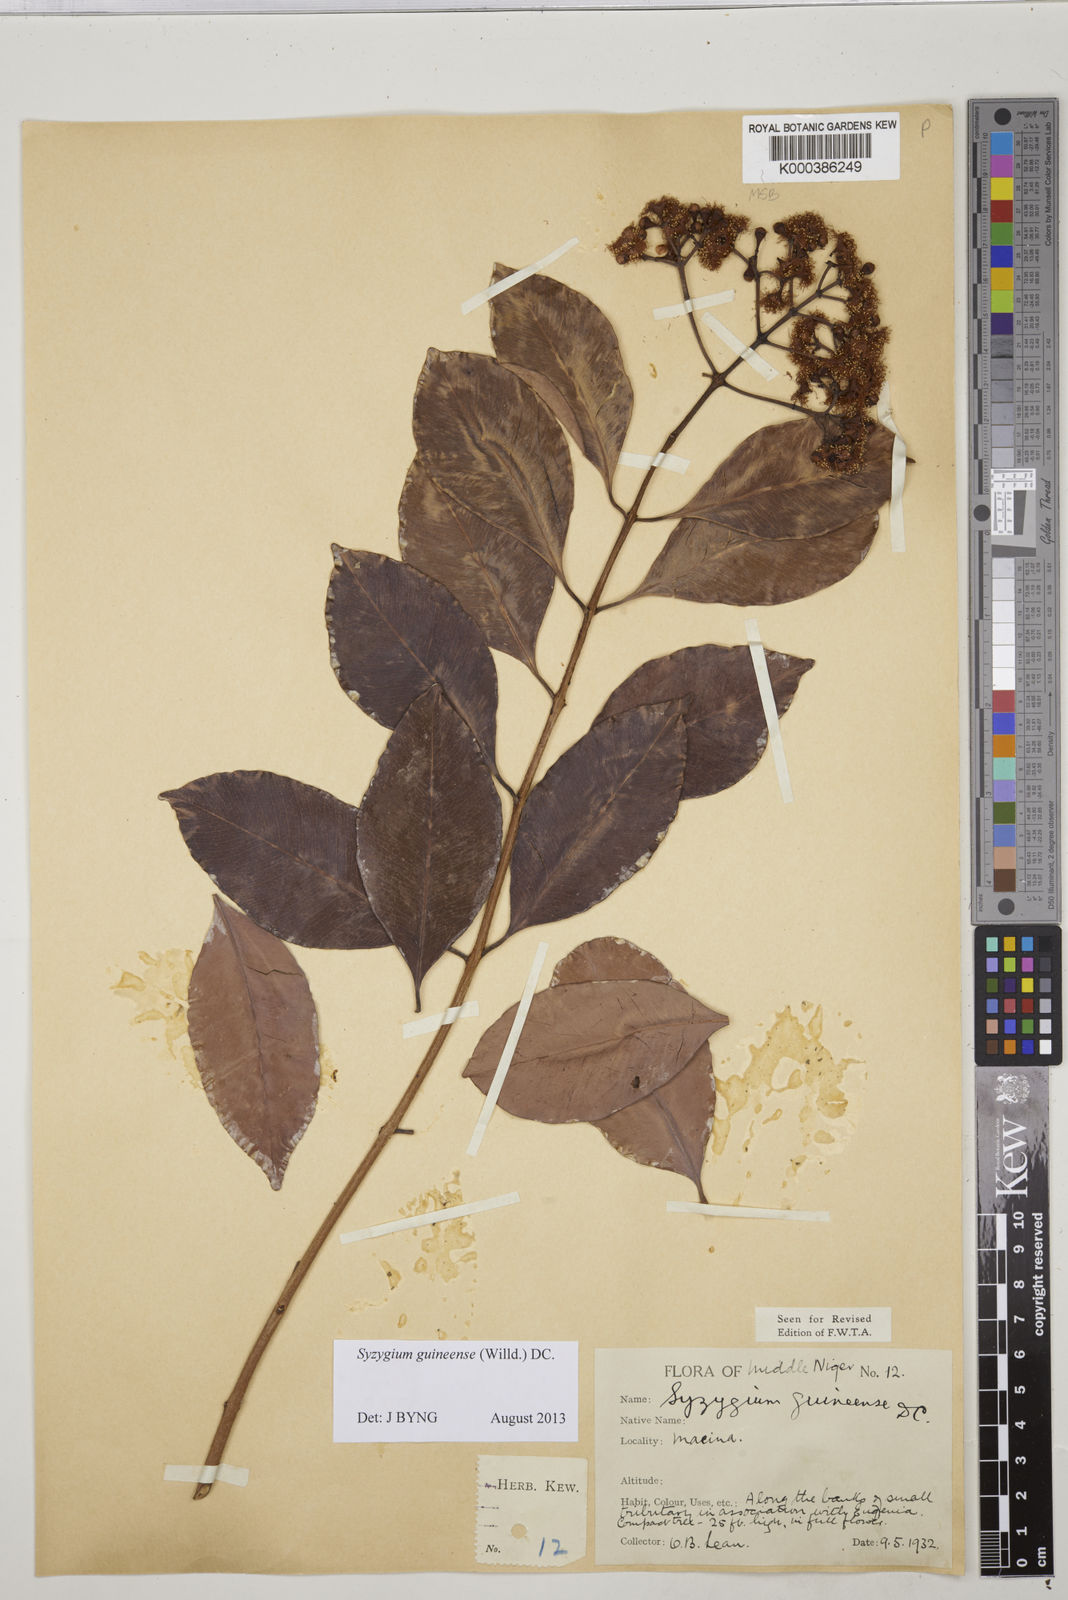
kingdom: Plantae
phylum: Tracheophyta
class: Magnoliopsida
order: Myrtales
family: Myrtaceae
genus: Syzygium
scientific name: Syzygium guineense
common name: Water-pear
